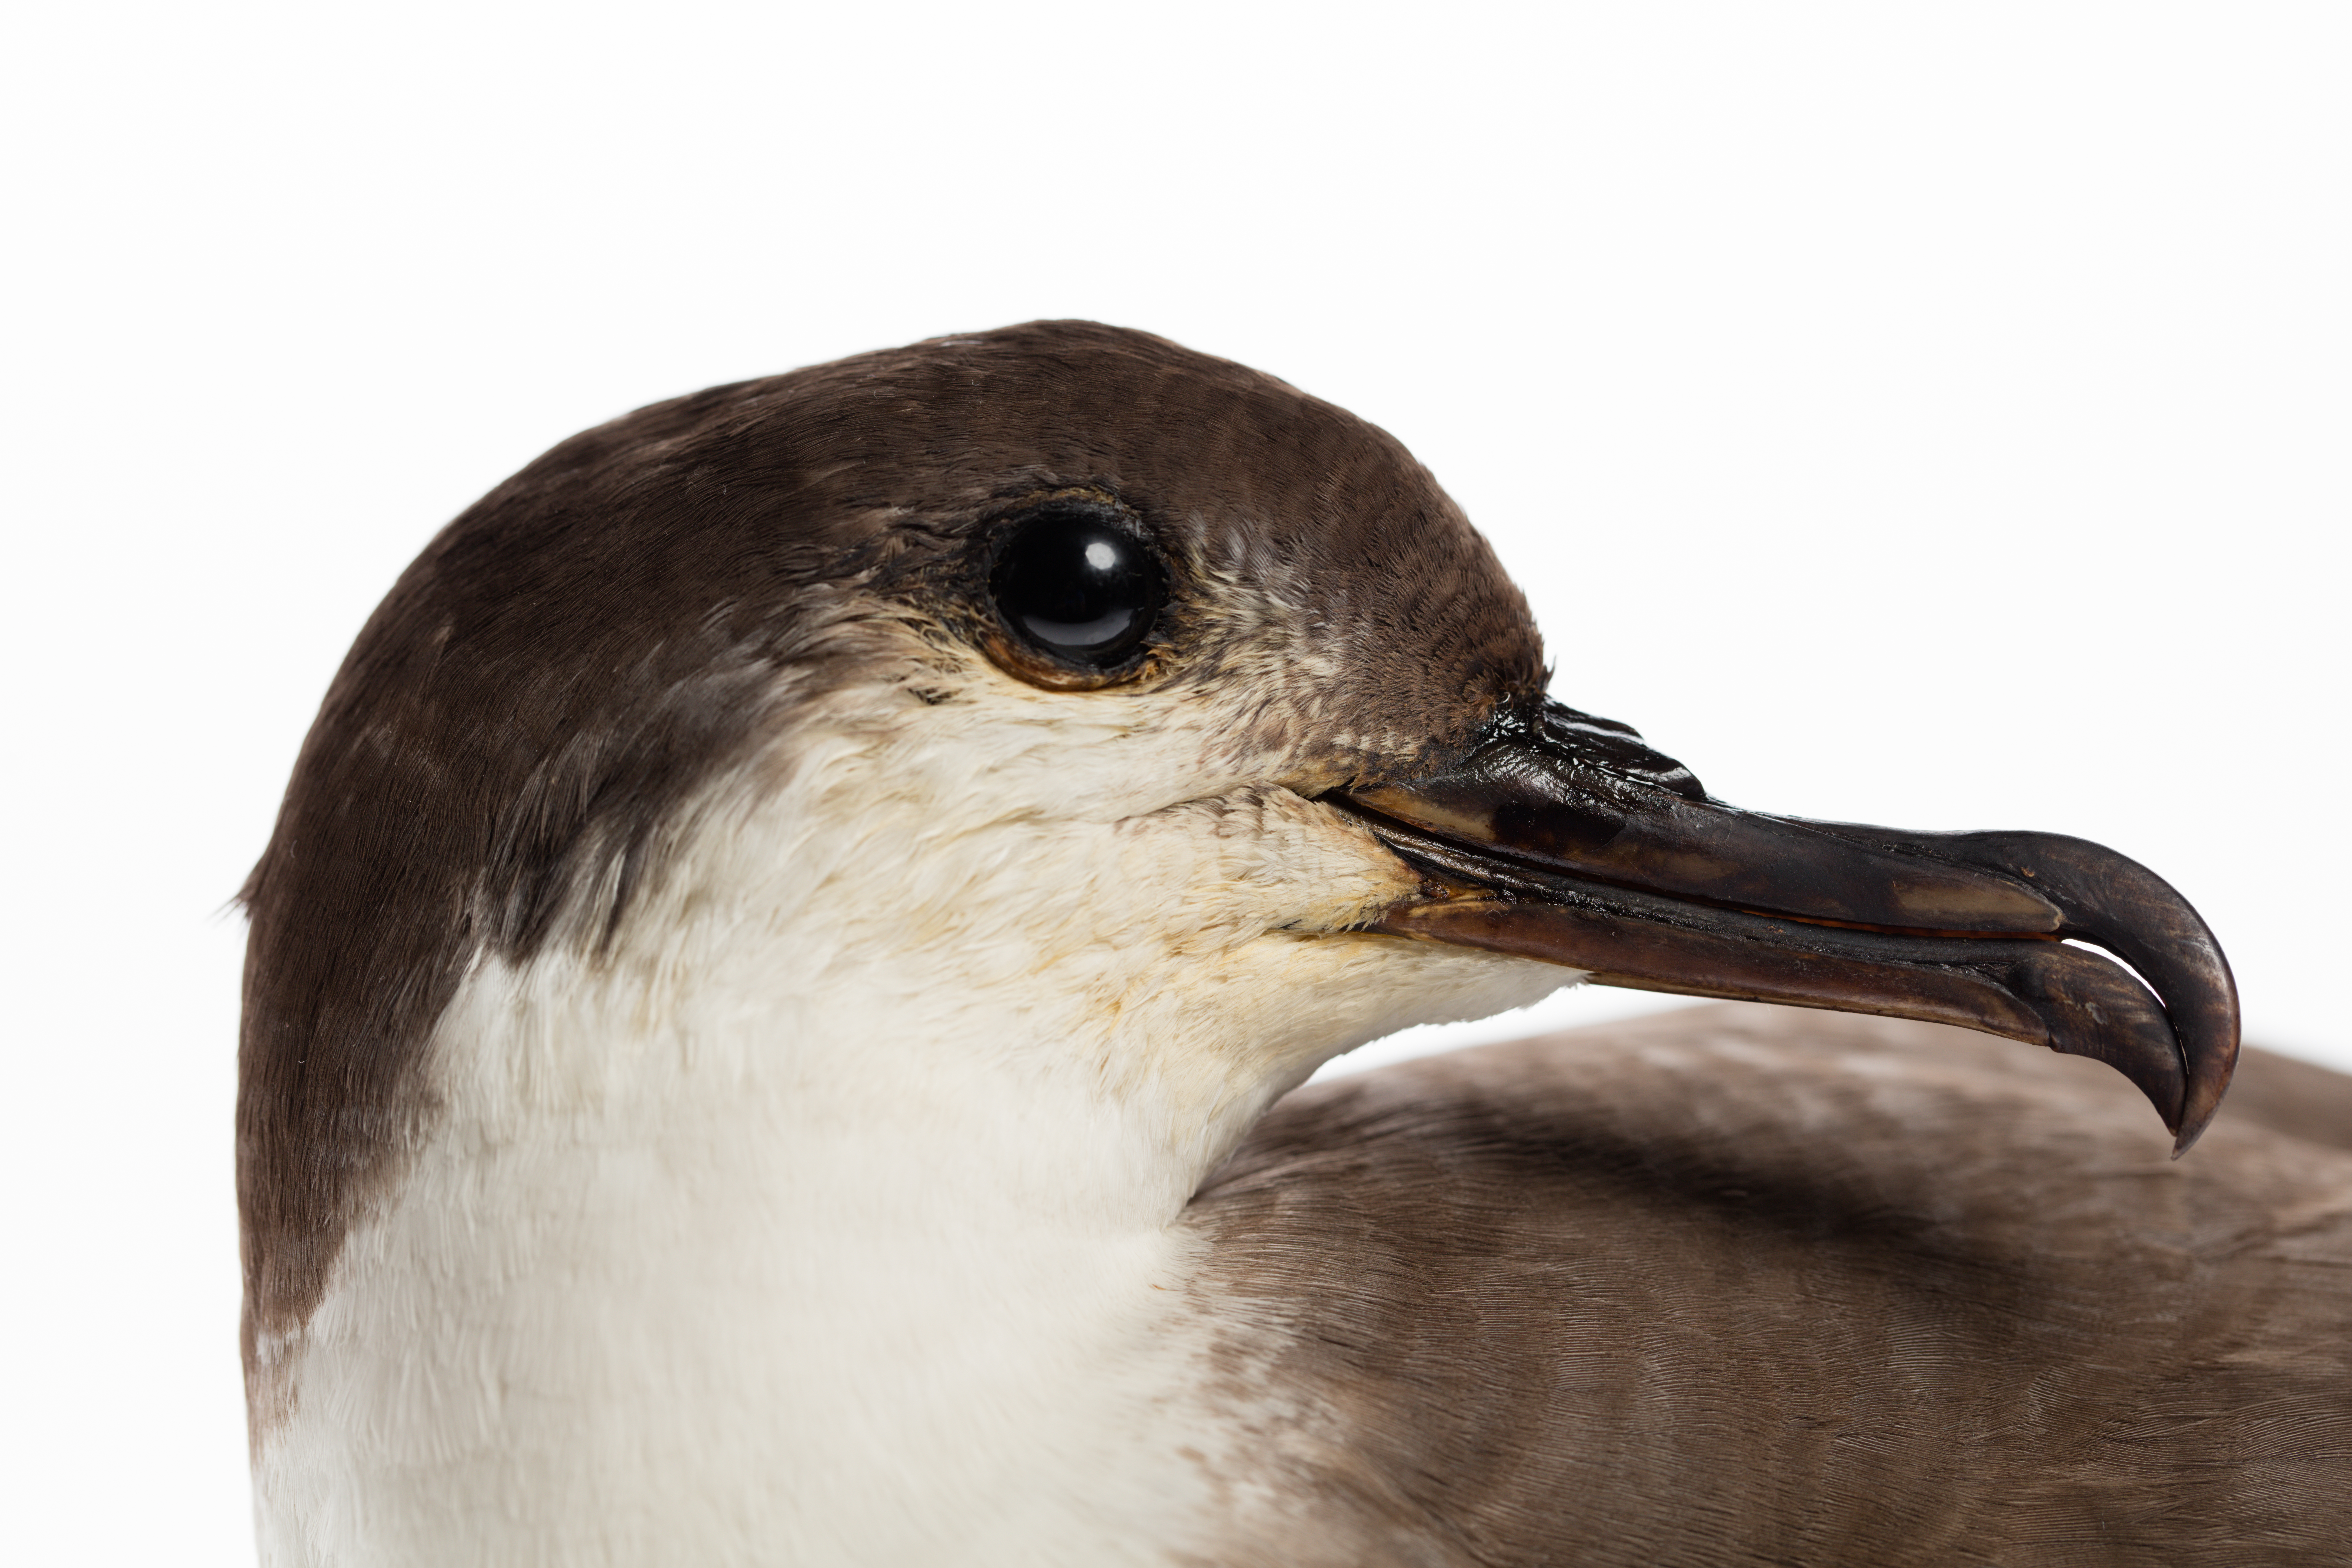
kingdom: Animalia
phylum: Chordata
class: Aves
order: Procellariiformes
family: Procellariidae
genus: Ardenna
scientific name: Ardenna
